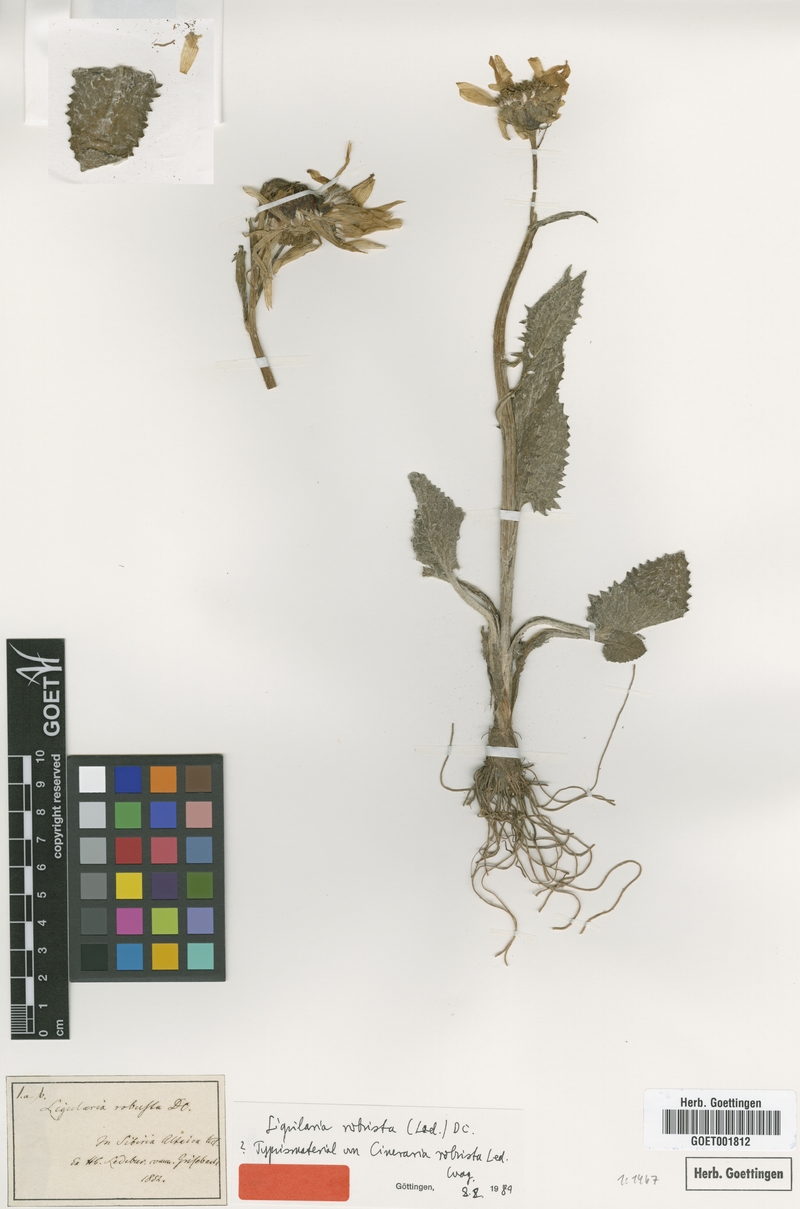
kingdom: Plantae
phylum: Tracheophyta
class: Magnoliopsida
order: Asterales
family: Asteraceae
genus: Vickifunkia
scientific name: Vickifunkia robusta
